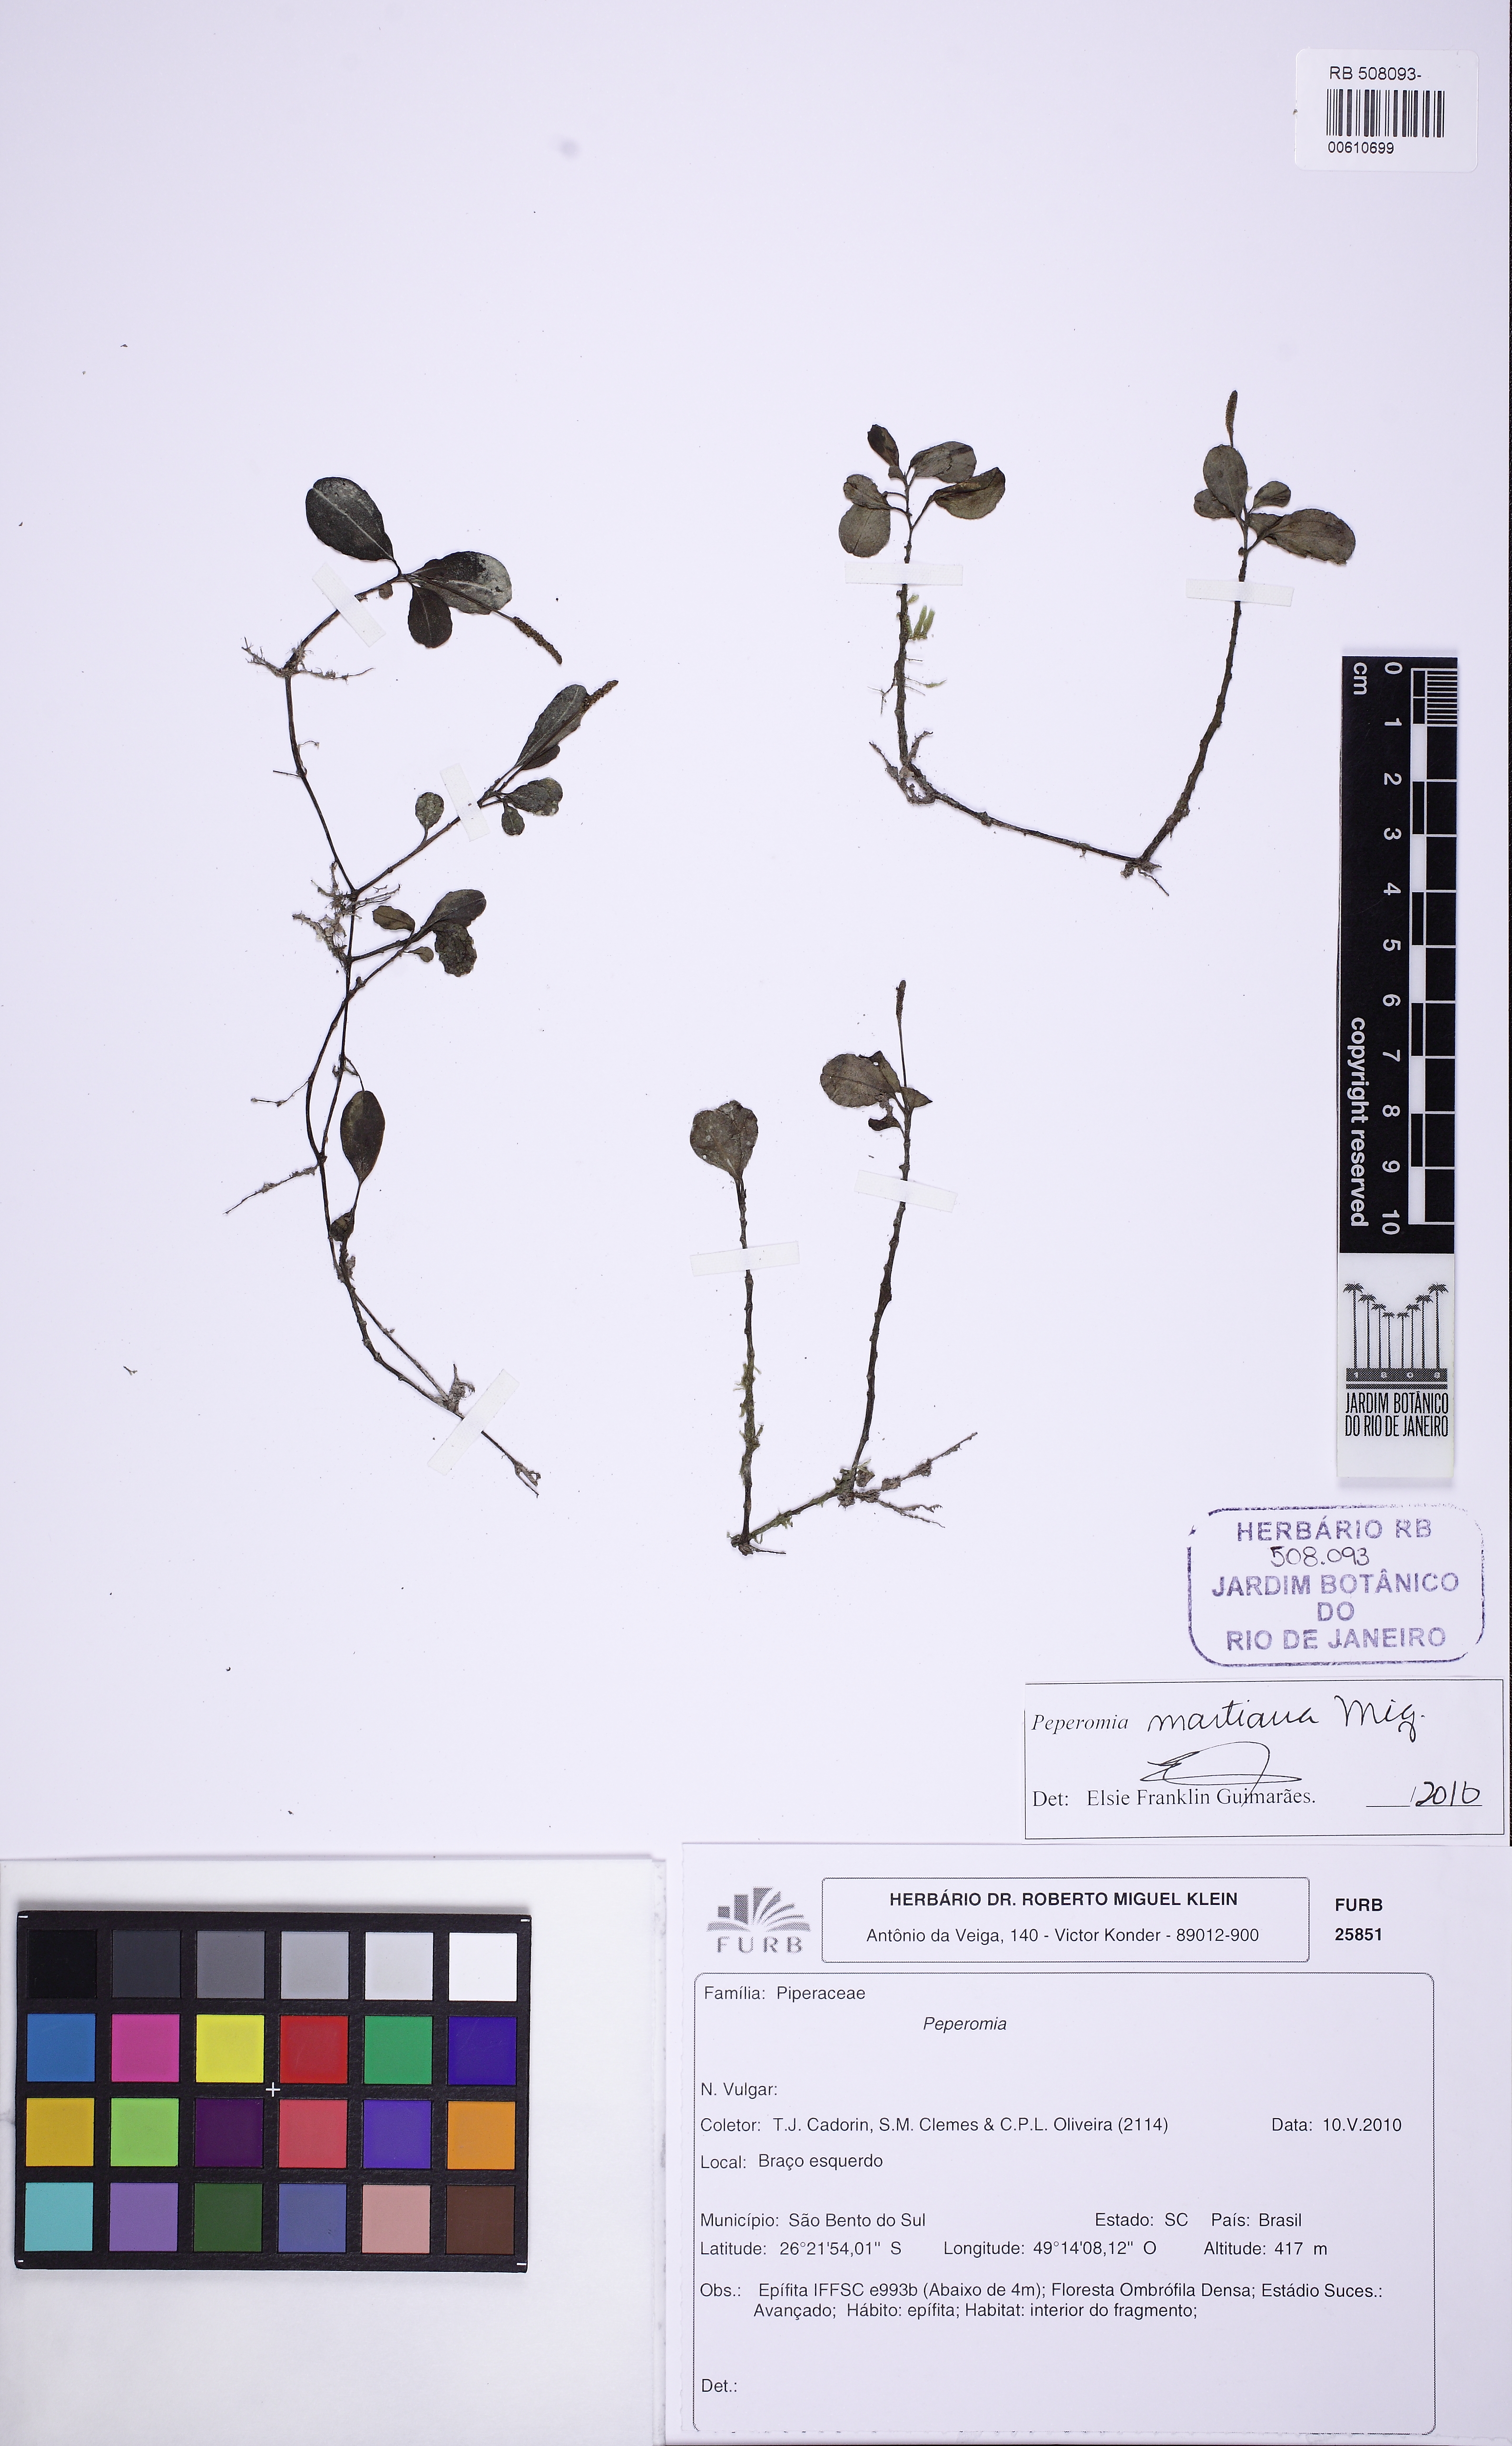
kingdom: Plantae
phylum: Tracheophyta
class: Magnoliopsida
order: Piperales
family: Piperaceae
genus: Peperomia
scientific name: Peperomia martiana
